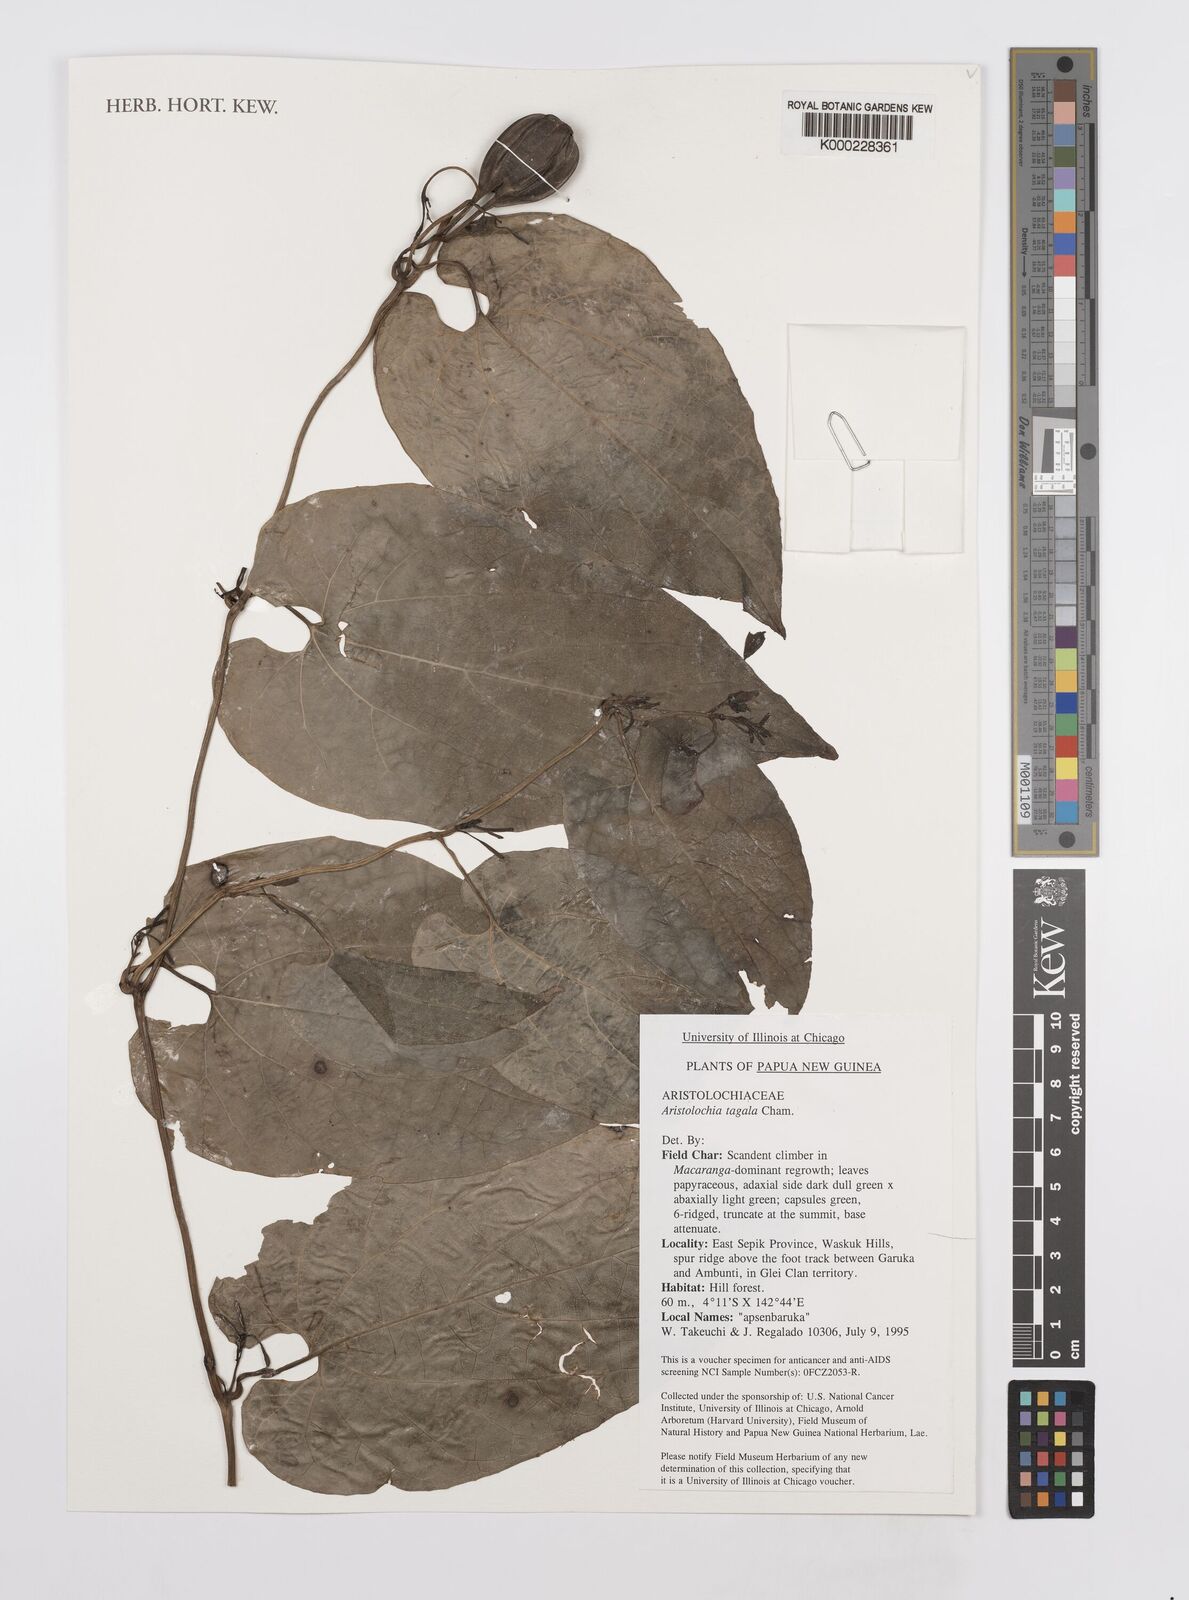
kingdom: Plantae
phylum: Tracheophyta
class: Magnoliopsida
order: Piperales
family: Aristolochiaceae
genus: Aristolochia
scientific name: Aristolochia acuminata
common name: Indian birthwort
